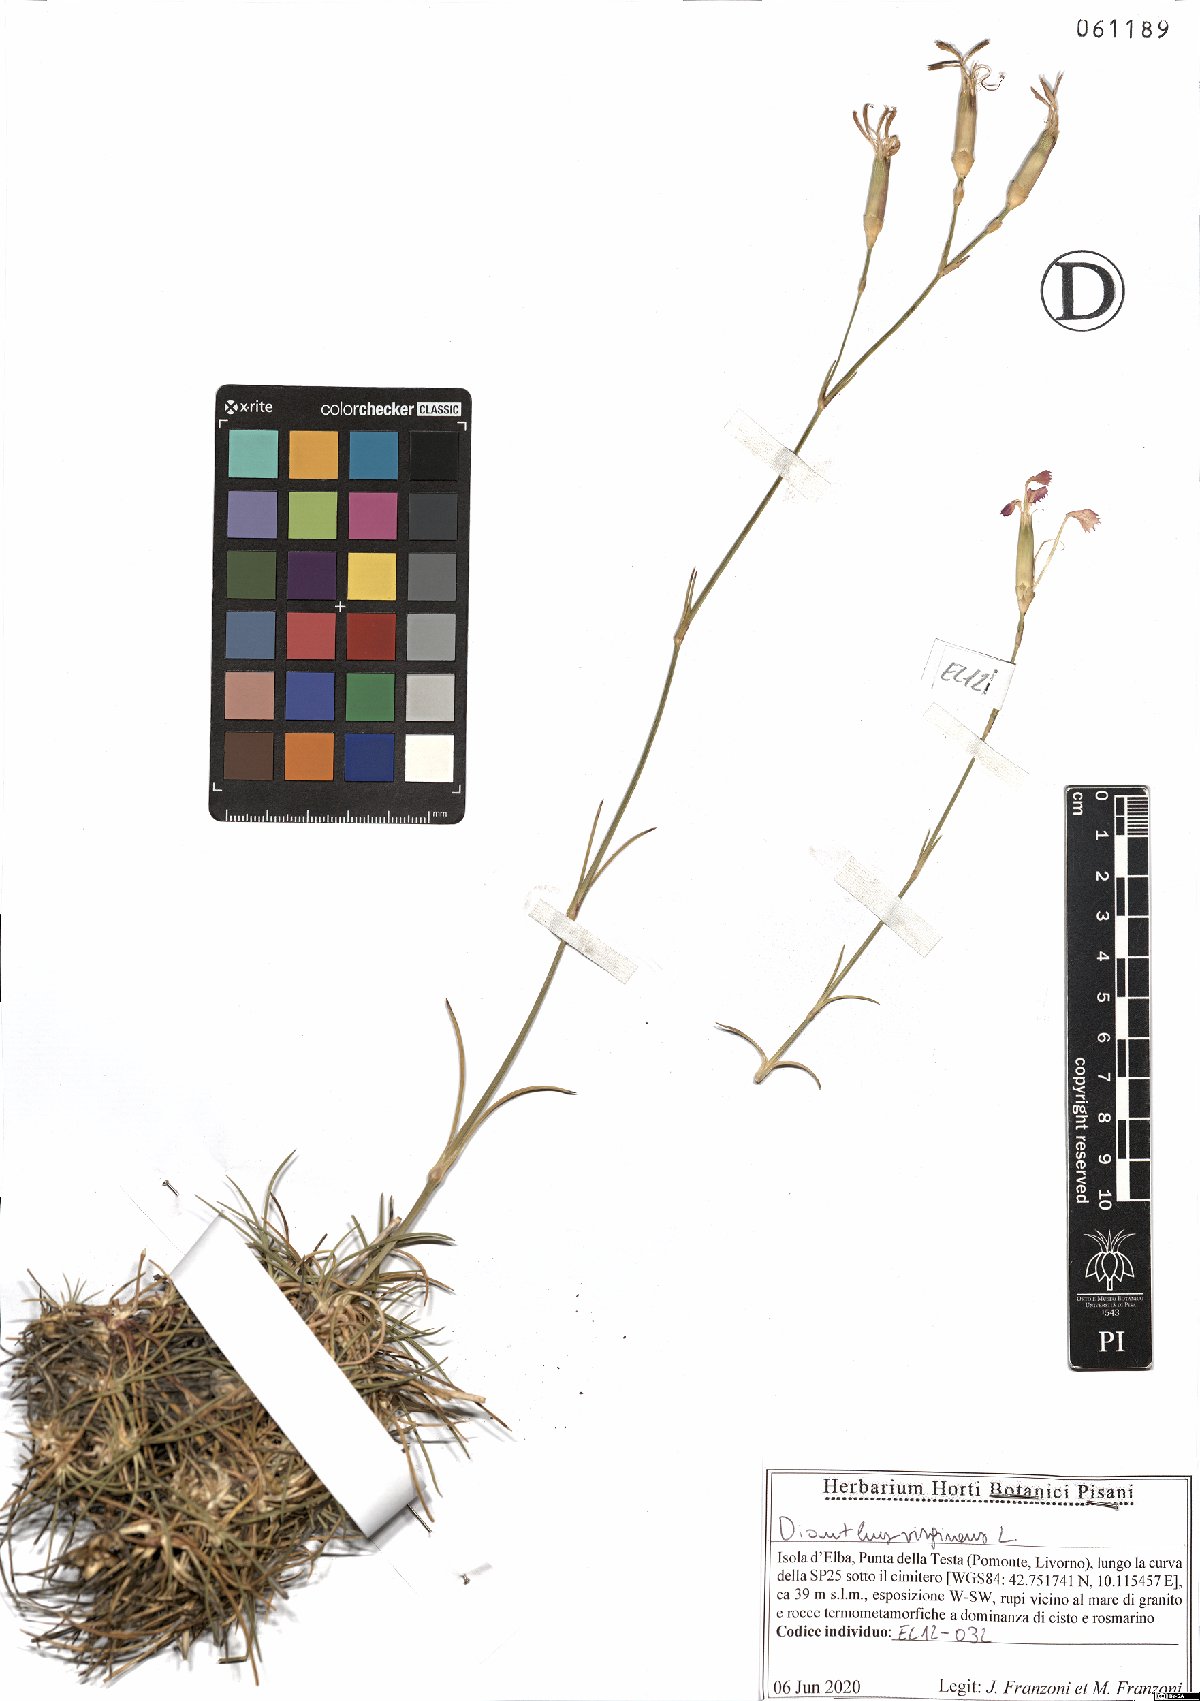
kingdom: Plantae
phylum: Tracheophyta
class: Magnoliopsida
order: Caryophyllales
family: Caryophyllaceae
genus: Dianthus
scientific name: Dianthus virgineus
